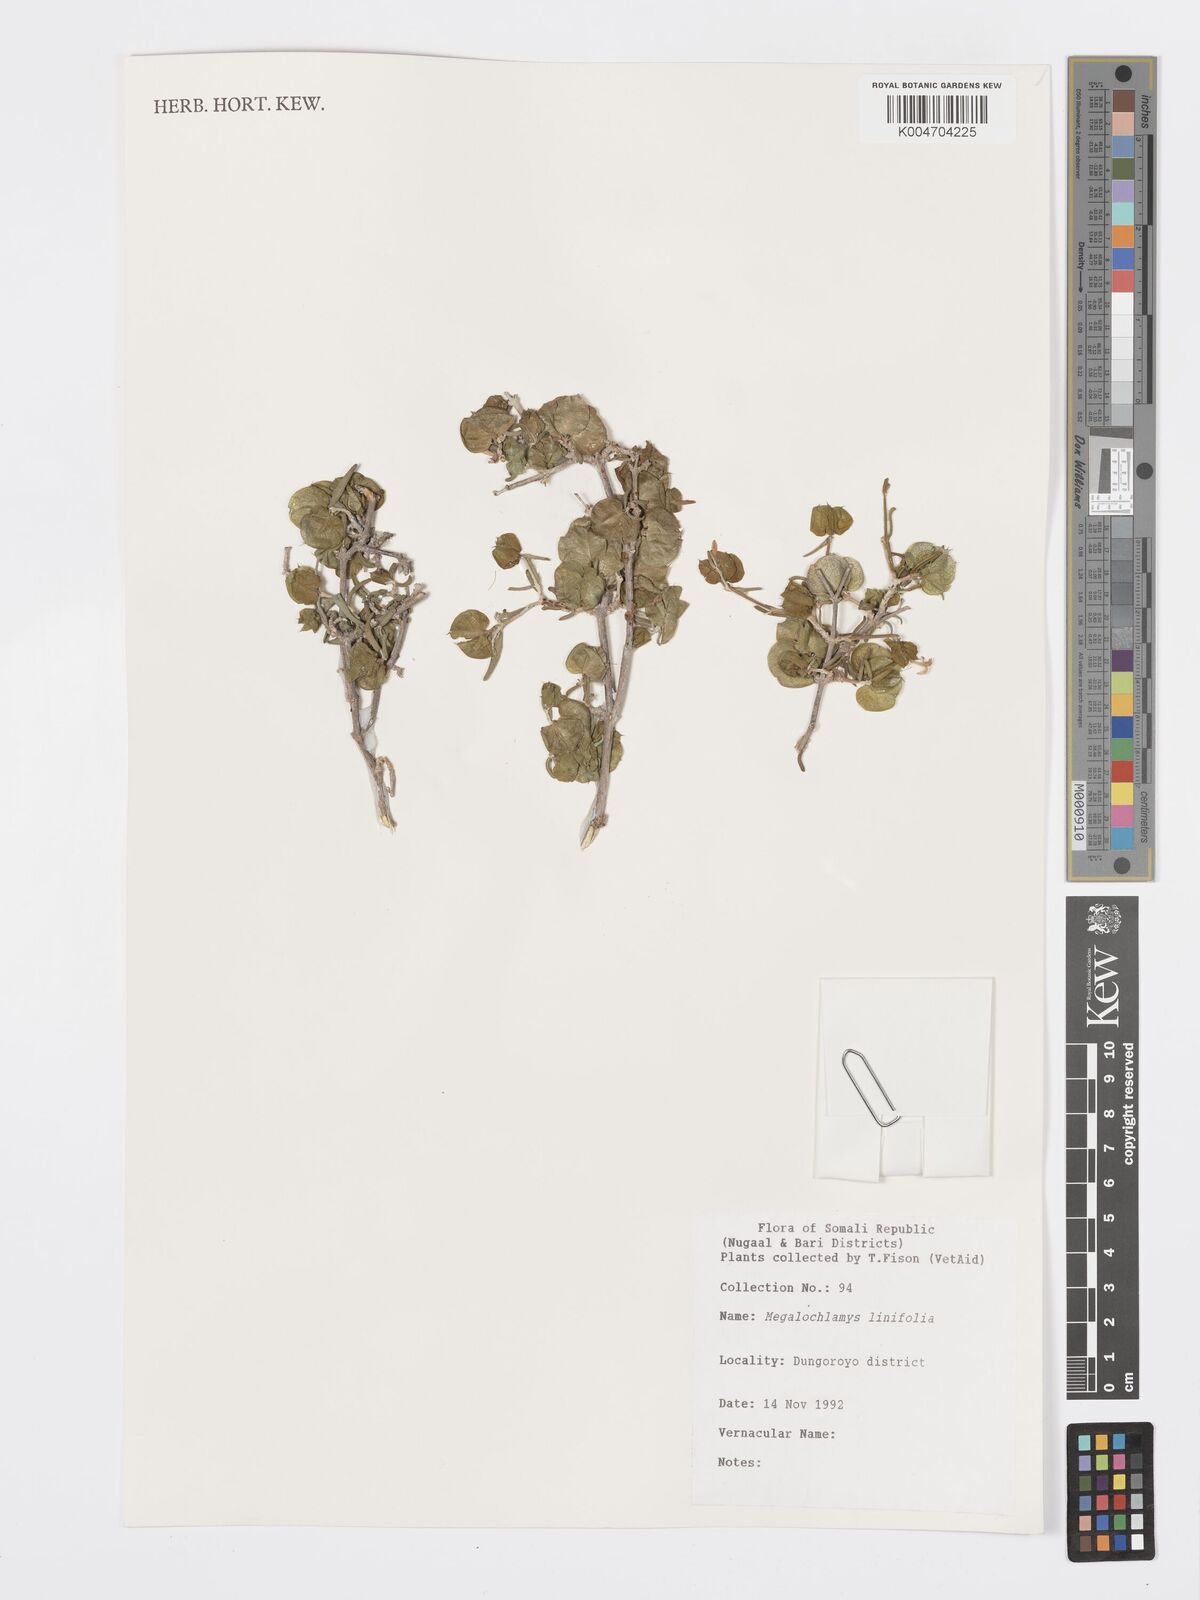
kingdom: Plantae
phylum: Tracheophyta
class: Magnoliopsida
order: Lamiales
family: Acanthaceae
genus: Megalochlamys
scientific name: Megalochlamys linifolia
